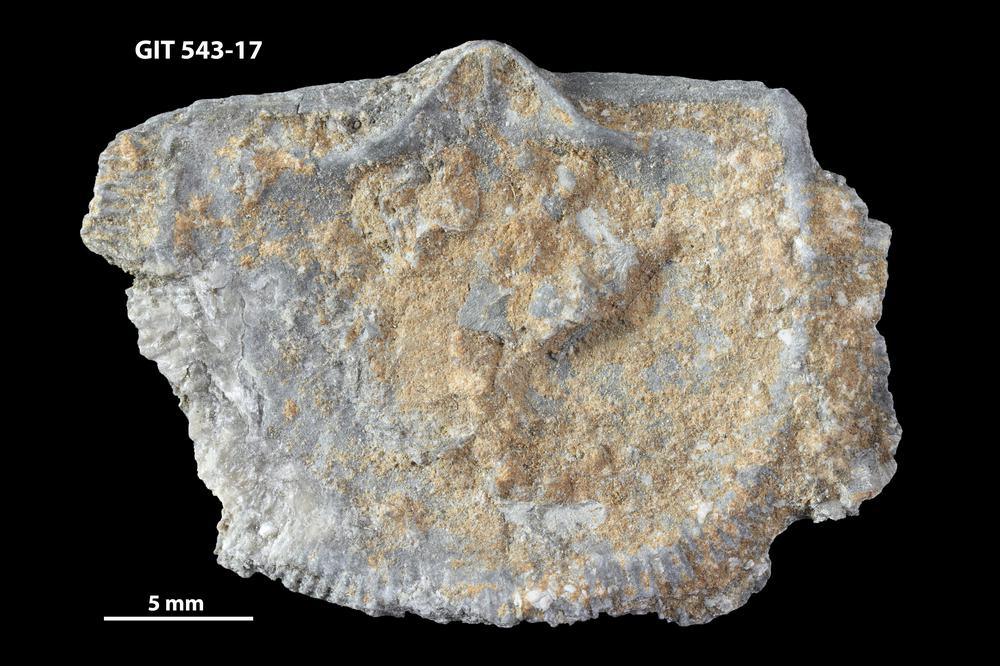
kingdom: Animalia
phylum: Brachiopoda
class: Rhynchonellata
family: Clitambonitidae
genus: Clitambonites
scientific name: Clitambonites
